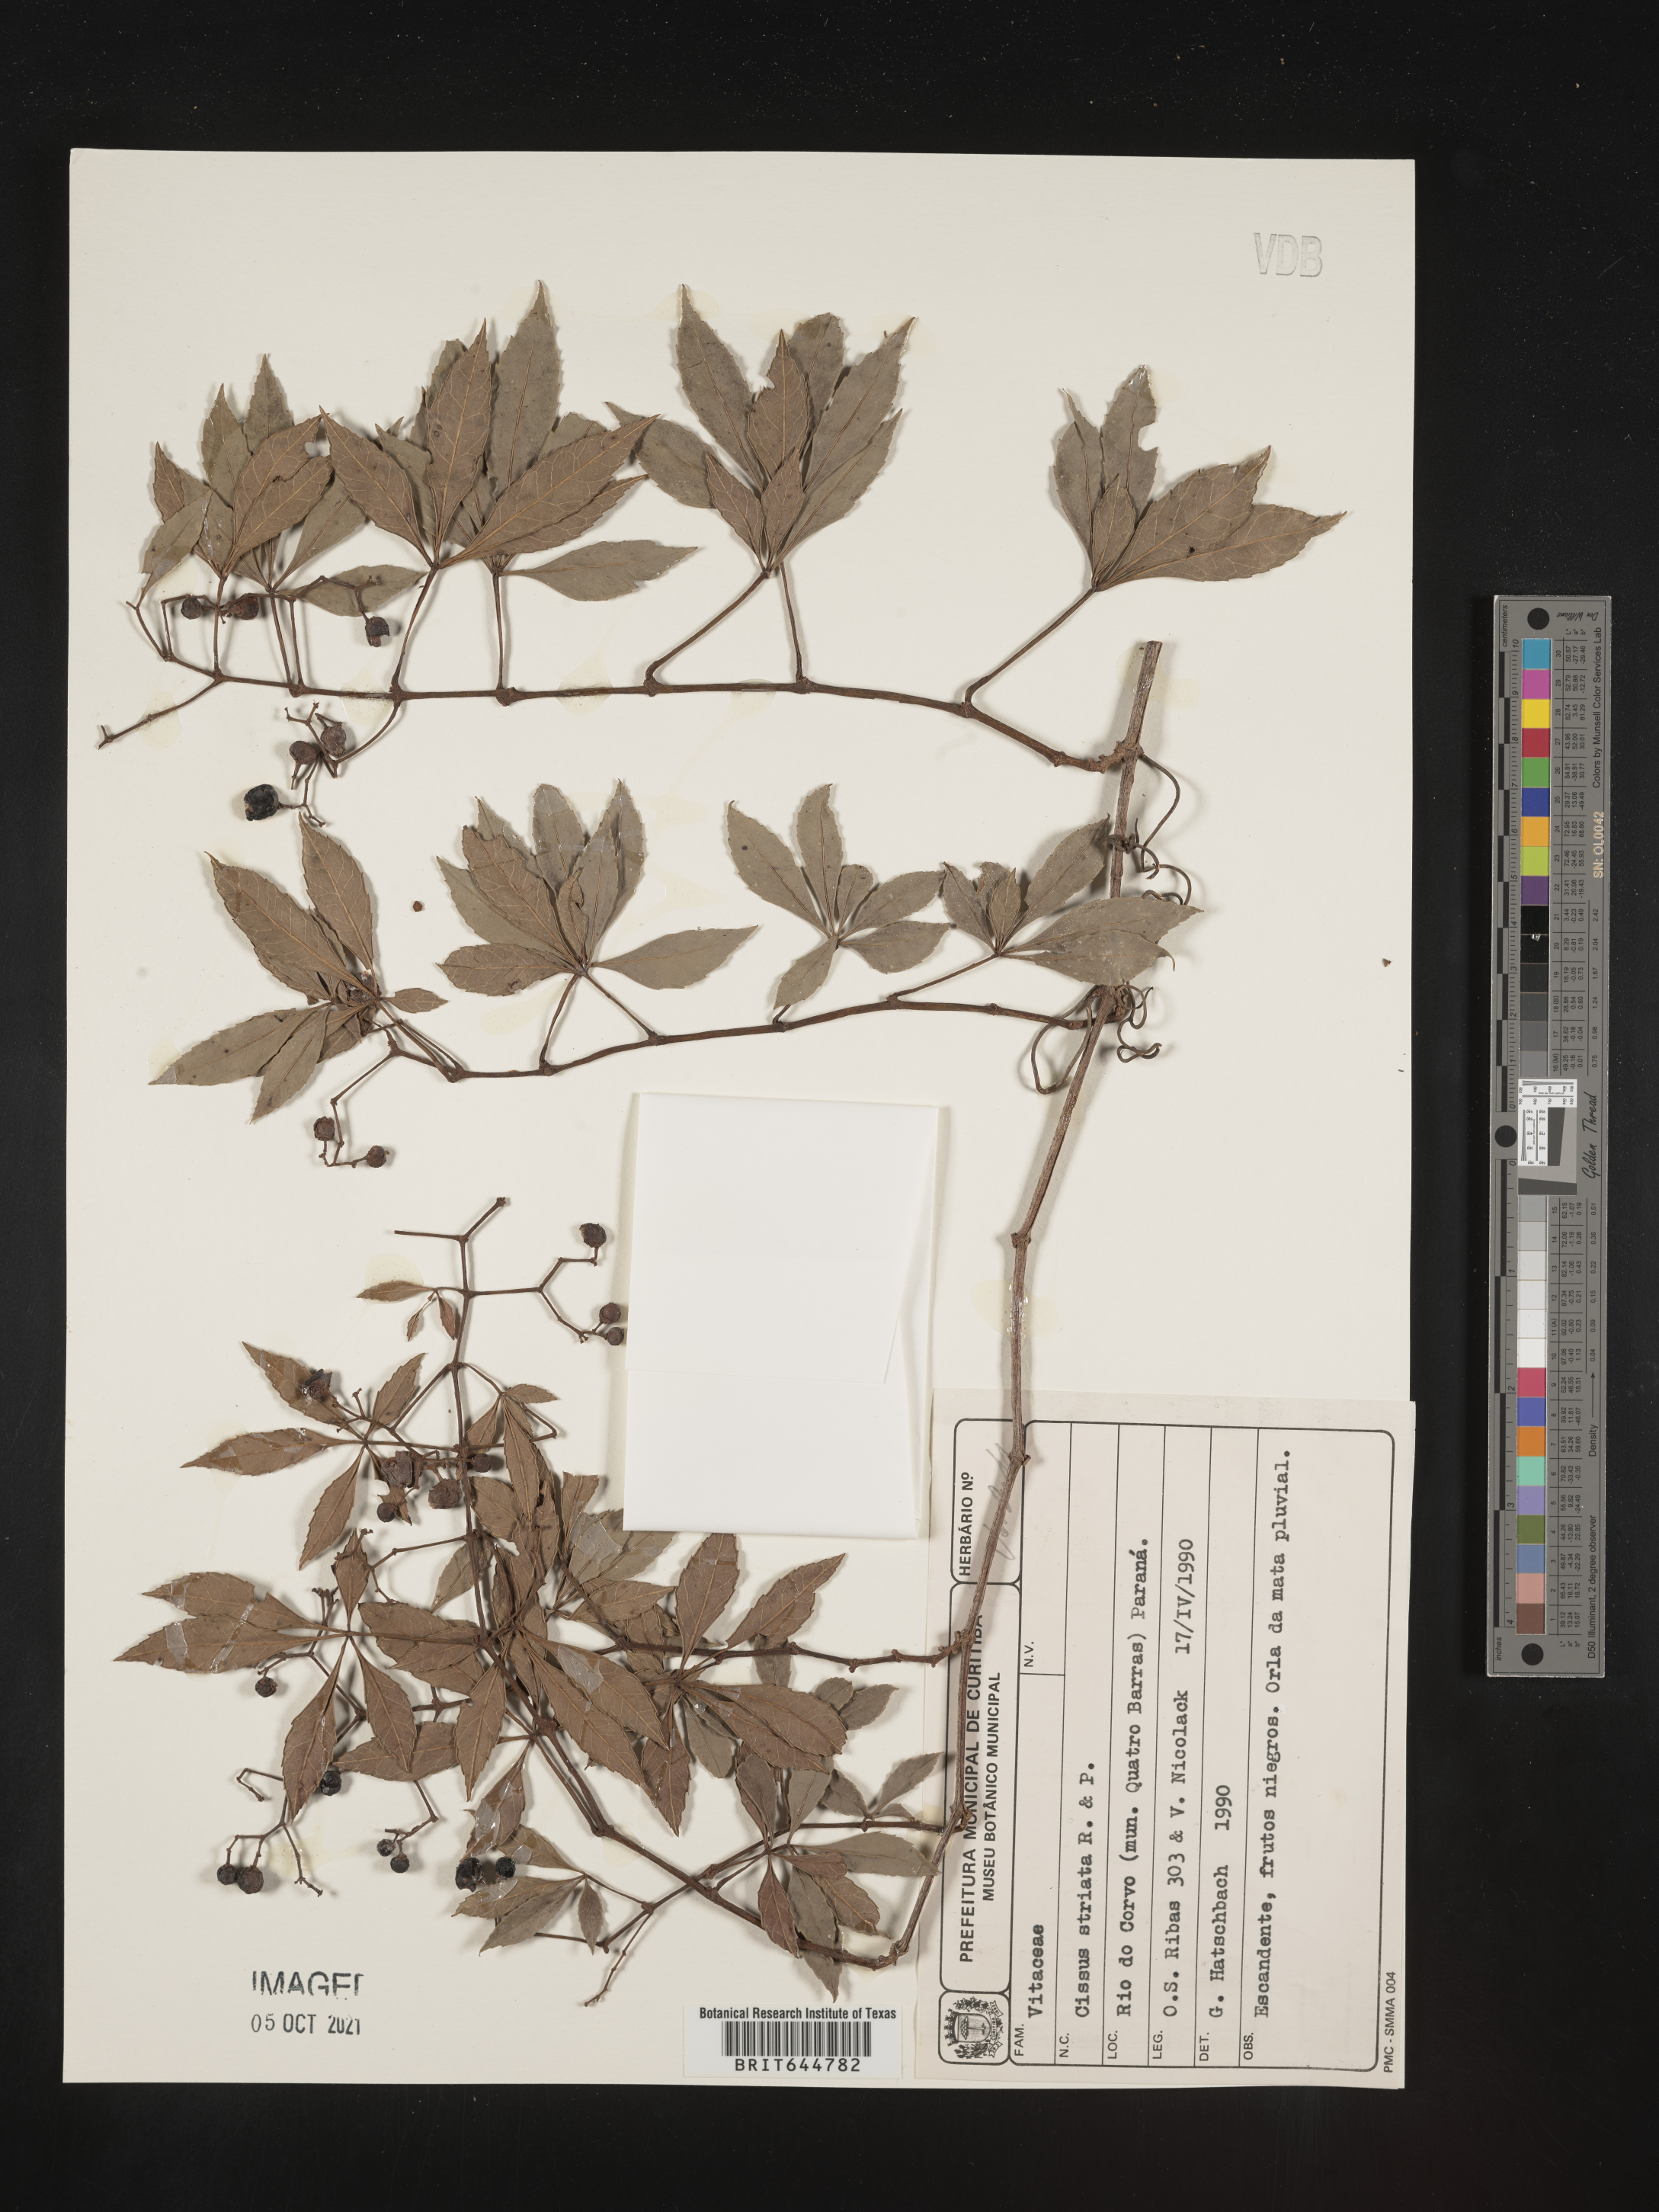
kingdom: Plantae
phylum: Tracheophyta
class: Magnoliopsida
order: Vitales
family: Vitaceae
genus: Cissus
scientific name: Cissus
